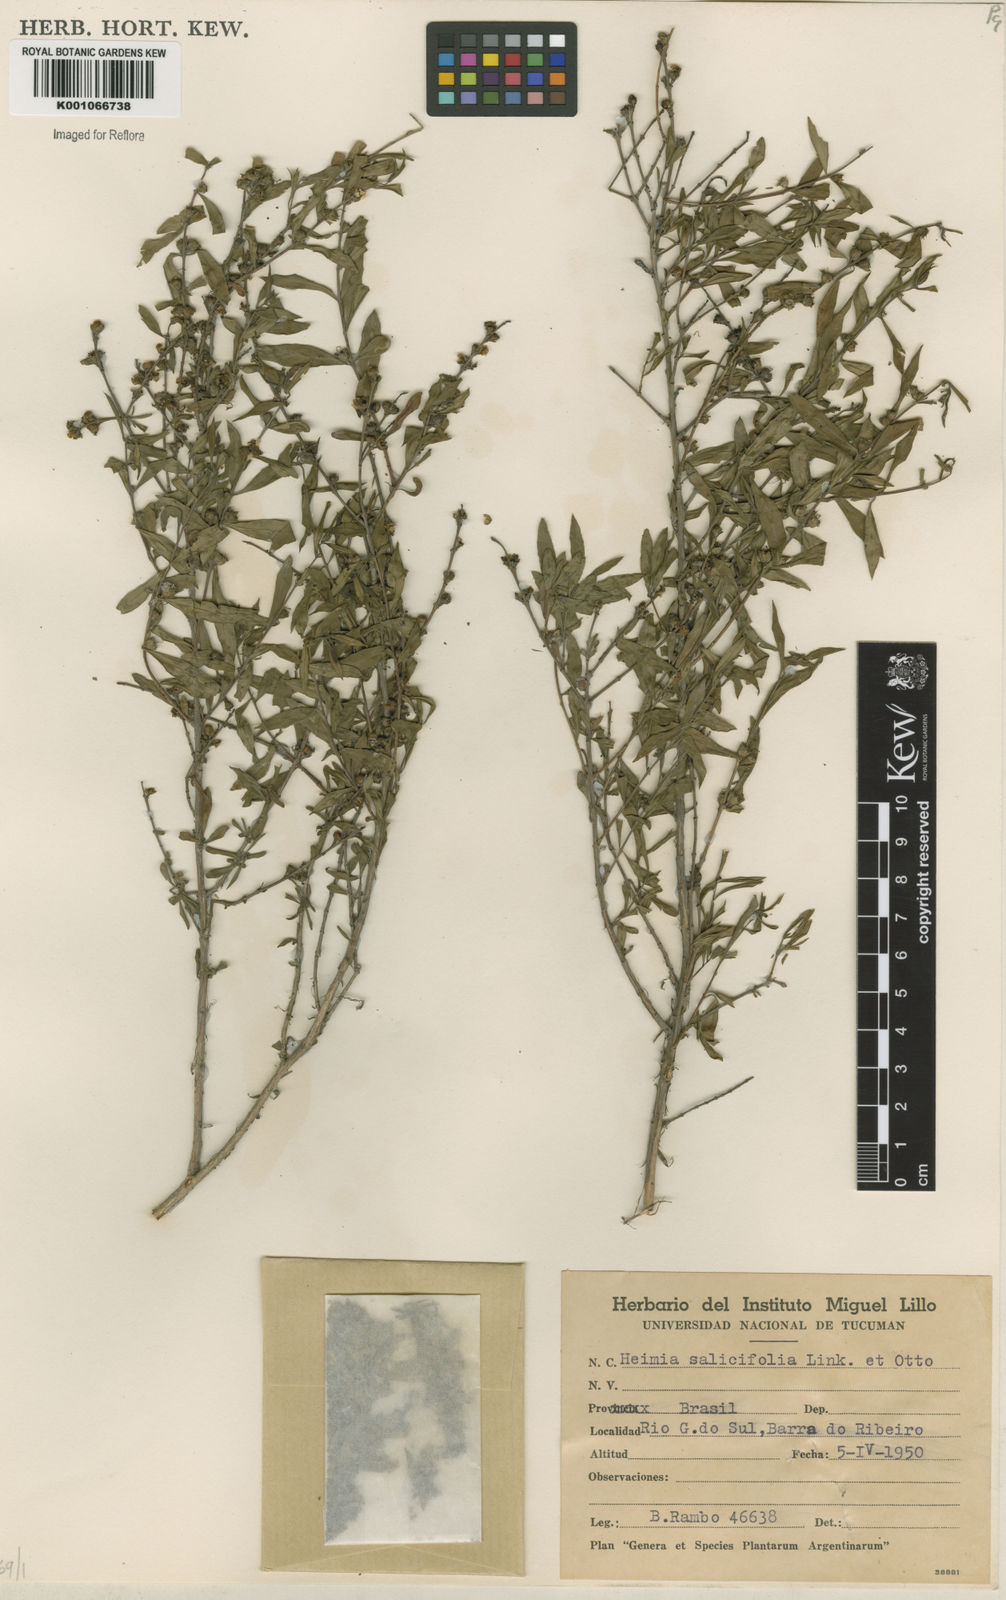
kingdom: Plantae
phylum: Tracheophyta
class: Magnoliopsida
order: Myrtales
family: Lythraceae
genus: Heimia
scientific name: Heimia salicifolia
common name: Willow-leaf heimia
